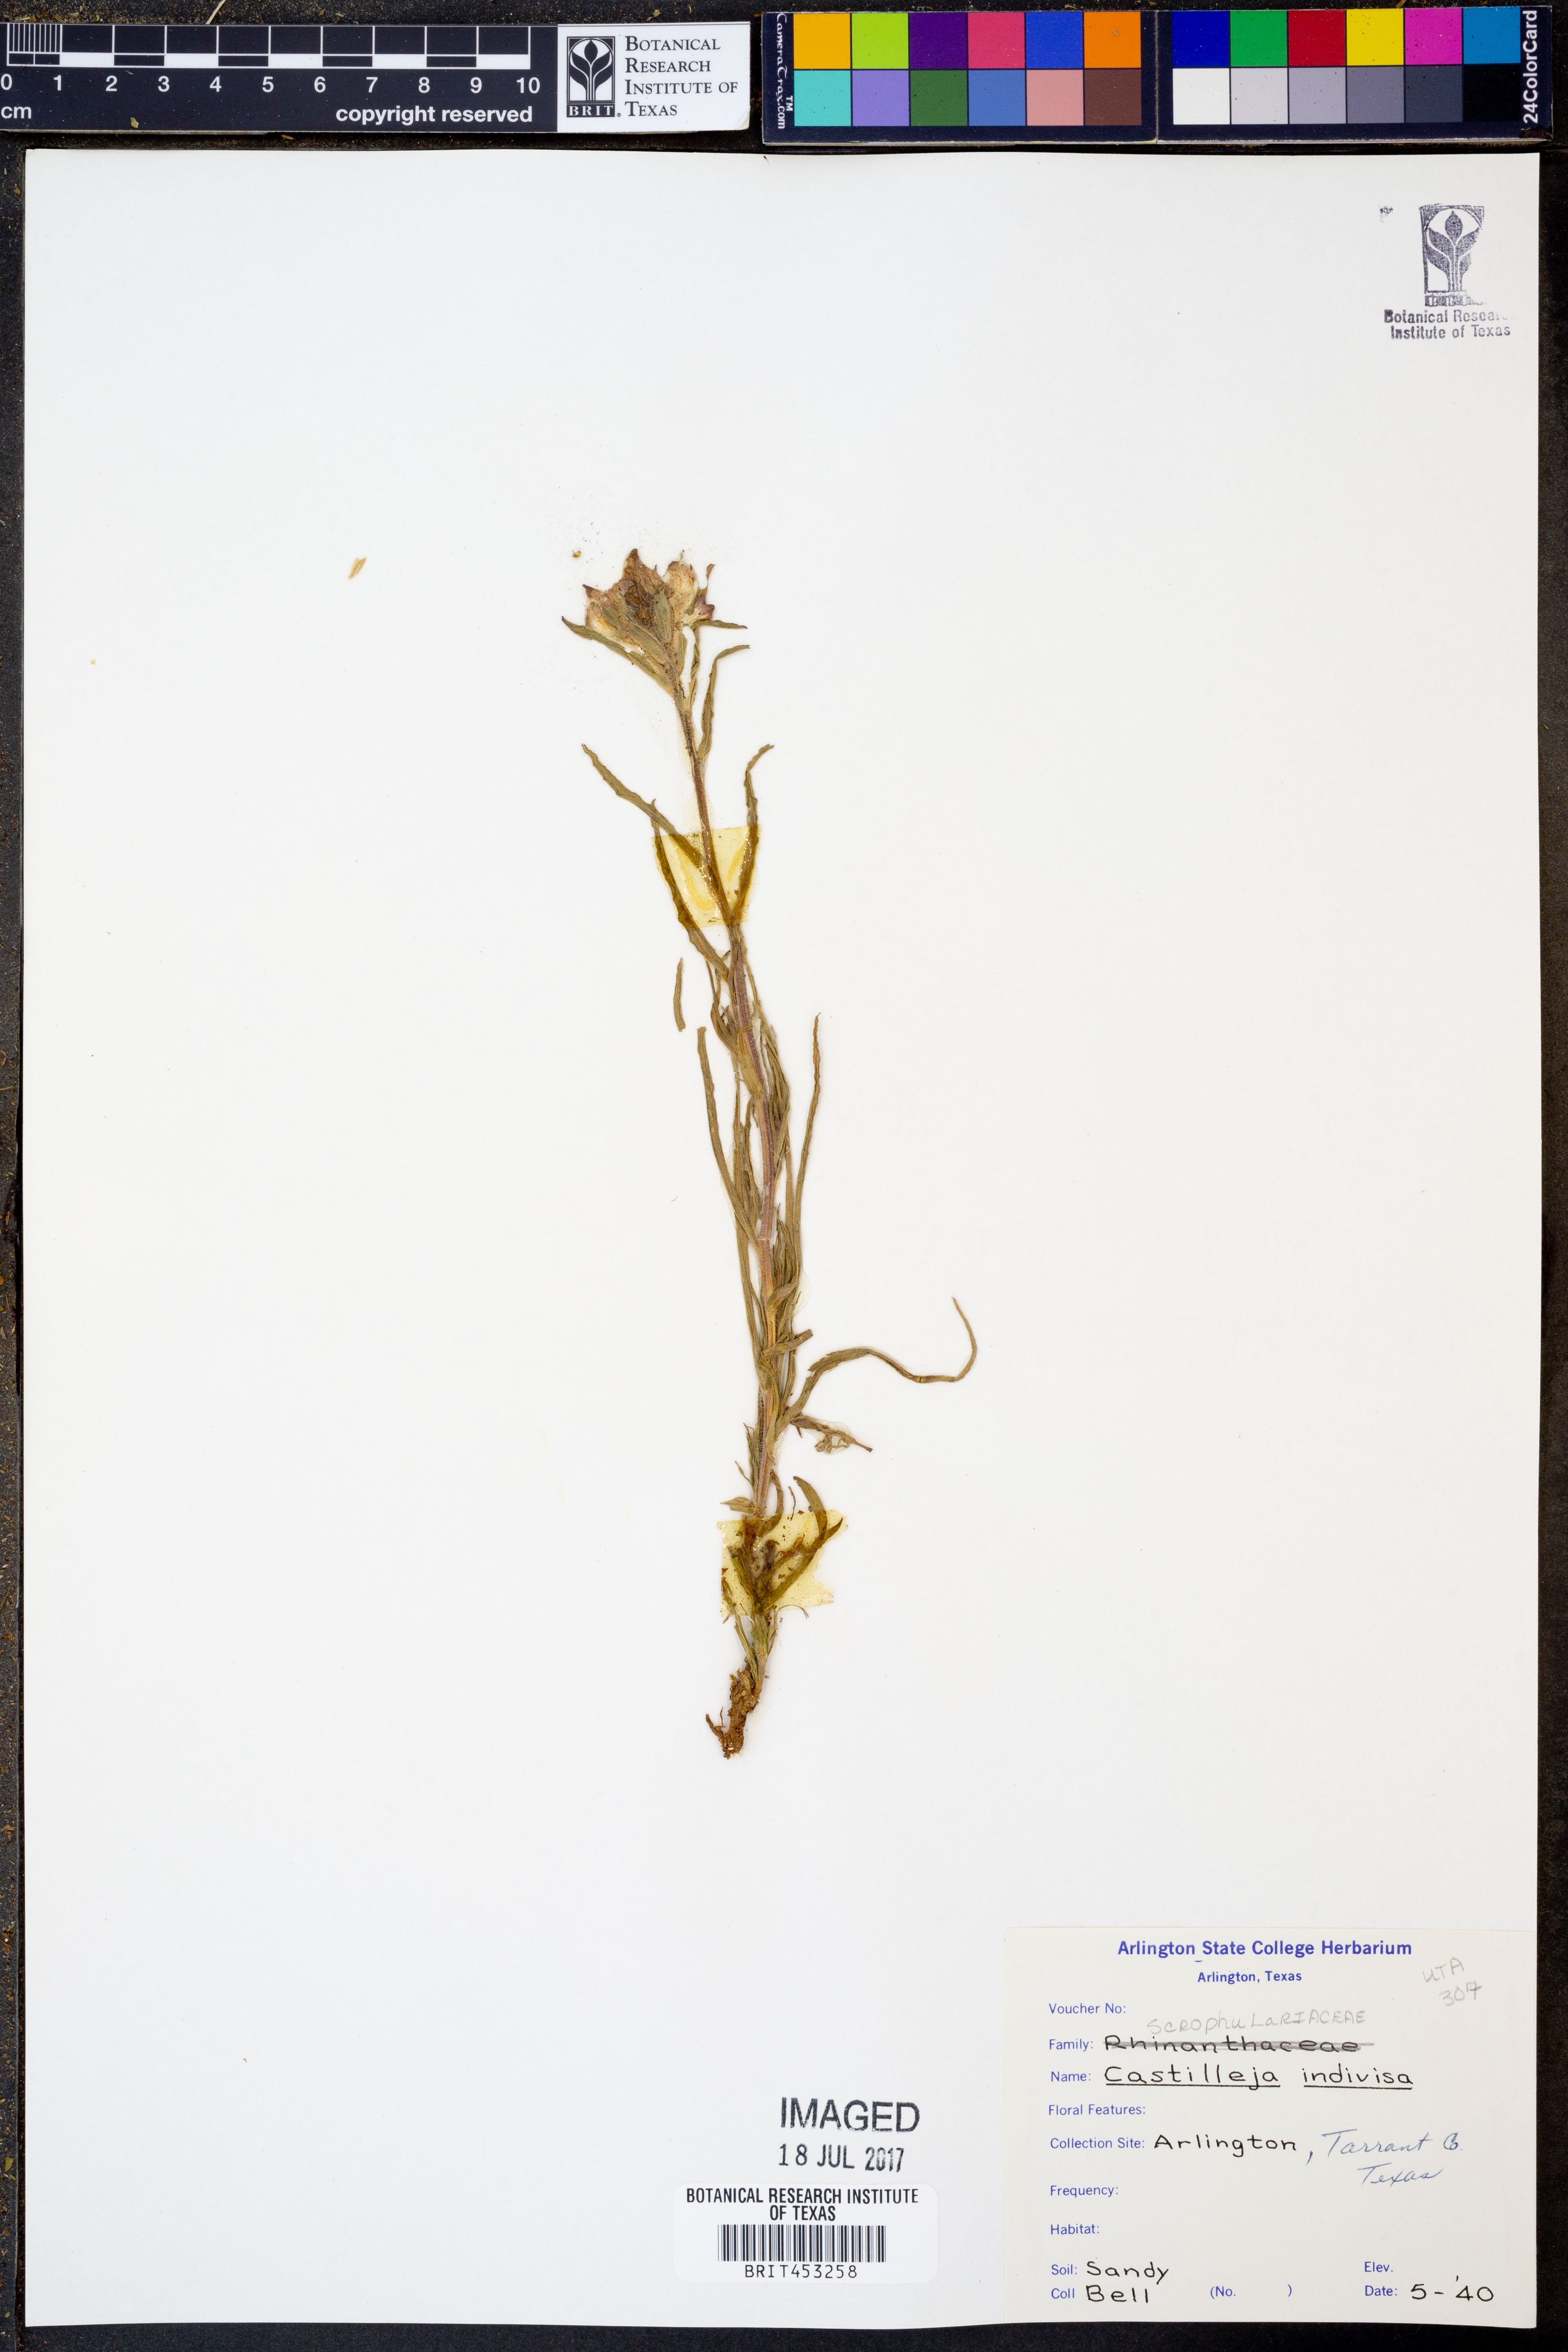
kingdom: Plantae
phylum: Tracheophyta
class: Magnoliopsida
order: Lamiales
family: Orobanchaceae
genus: Castilleja
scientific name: Castilleja indivisa
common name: Texas paintbrush
